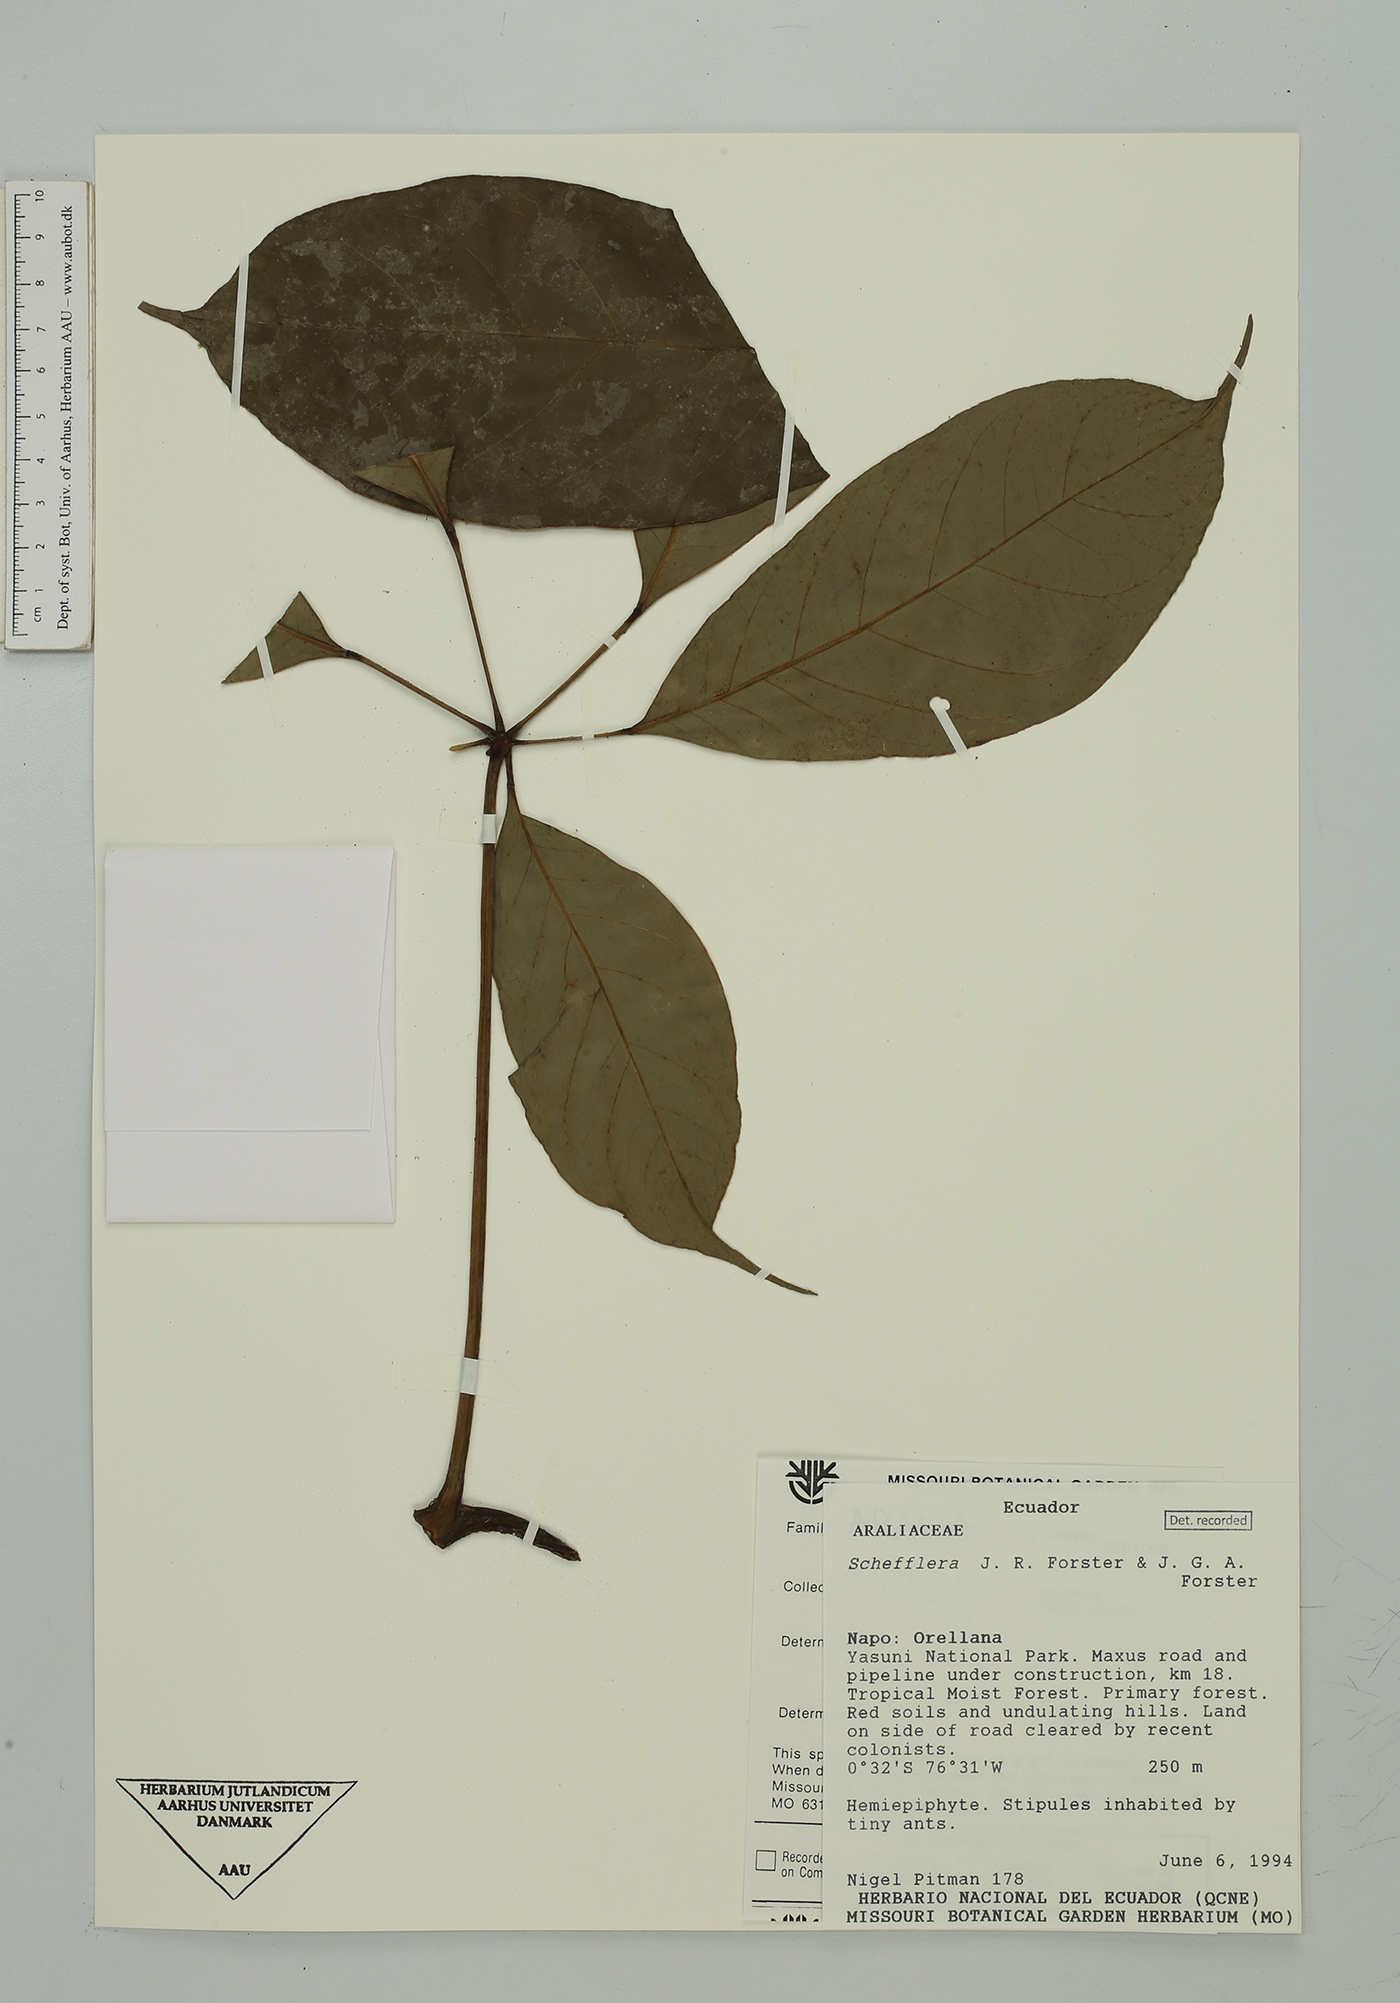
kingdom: Plantae
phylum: Tracheophyta
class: Magnoliopsida
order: Apiales
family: Araliaceae
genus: Sciodaphyllum
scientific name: Sciodaphyllum
